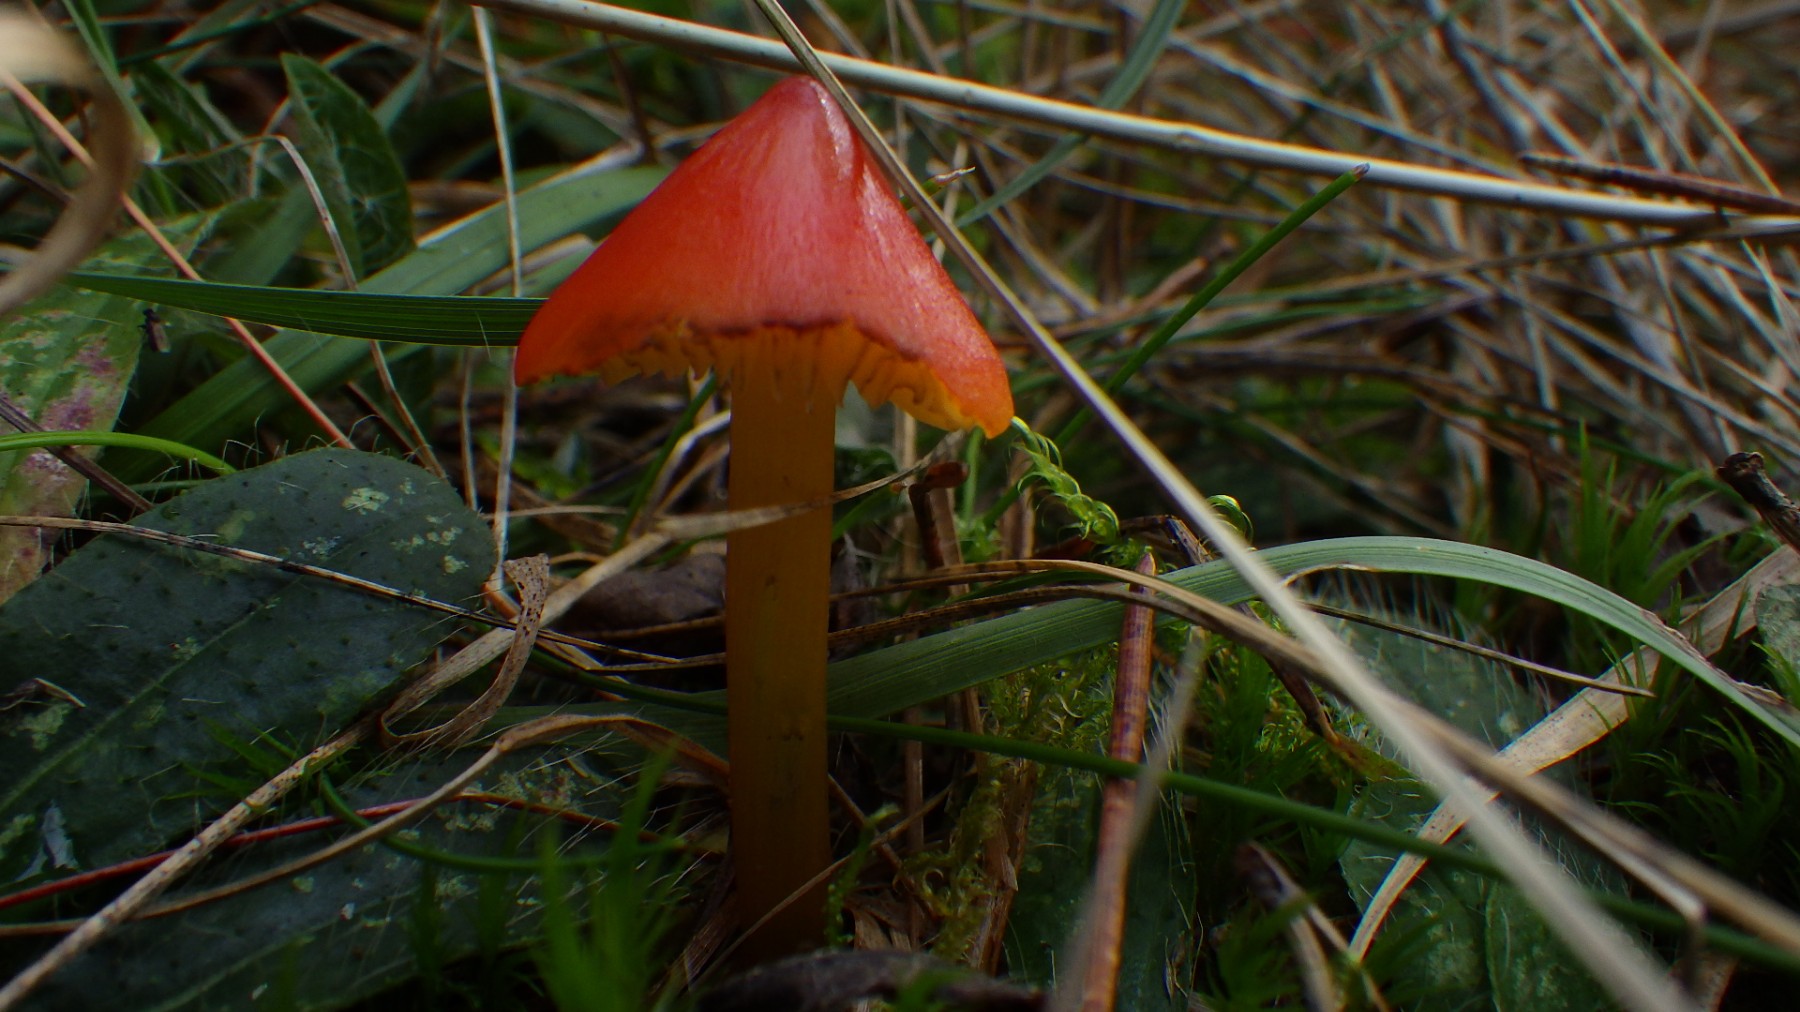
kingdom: Fungi
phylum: Basidiomycota
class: Agaricomycetes
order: Agaricales
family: Hygrophoraceae
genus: Hygrocybe
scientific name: Hygrocybe conica
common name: kegle-vokshat
